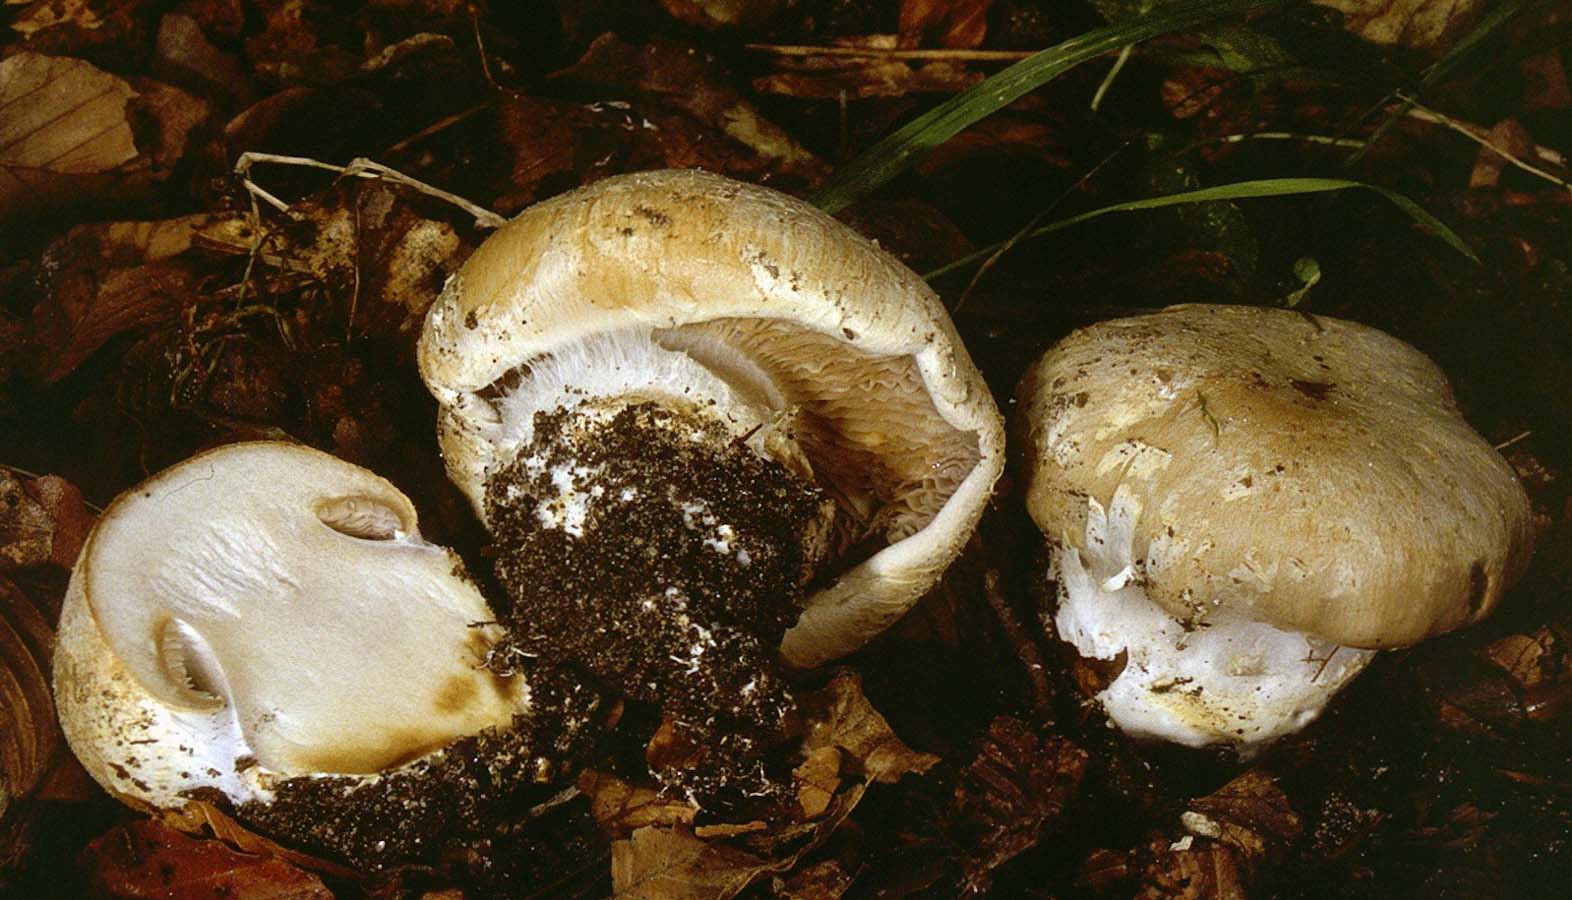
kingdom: Fungi
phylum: Basidiomycota
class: Agaricomycetes
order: Agaricales
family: Cortinariaceae
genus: Cortinarius
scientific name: Cortinarius foetens
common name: stribet slørhat
